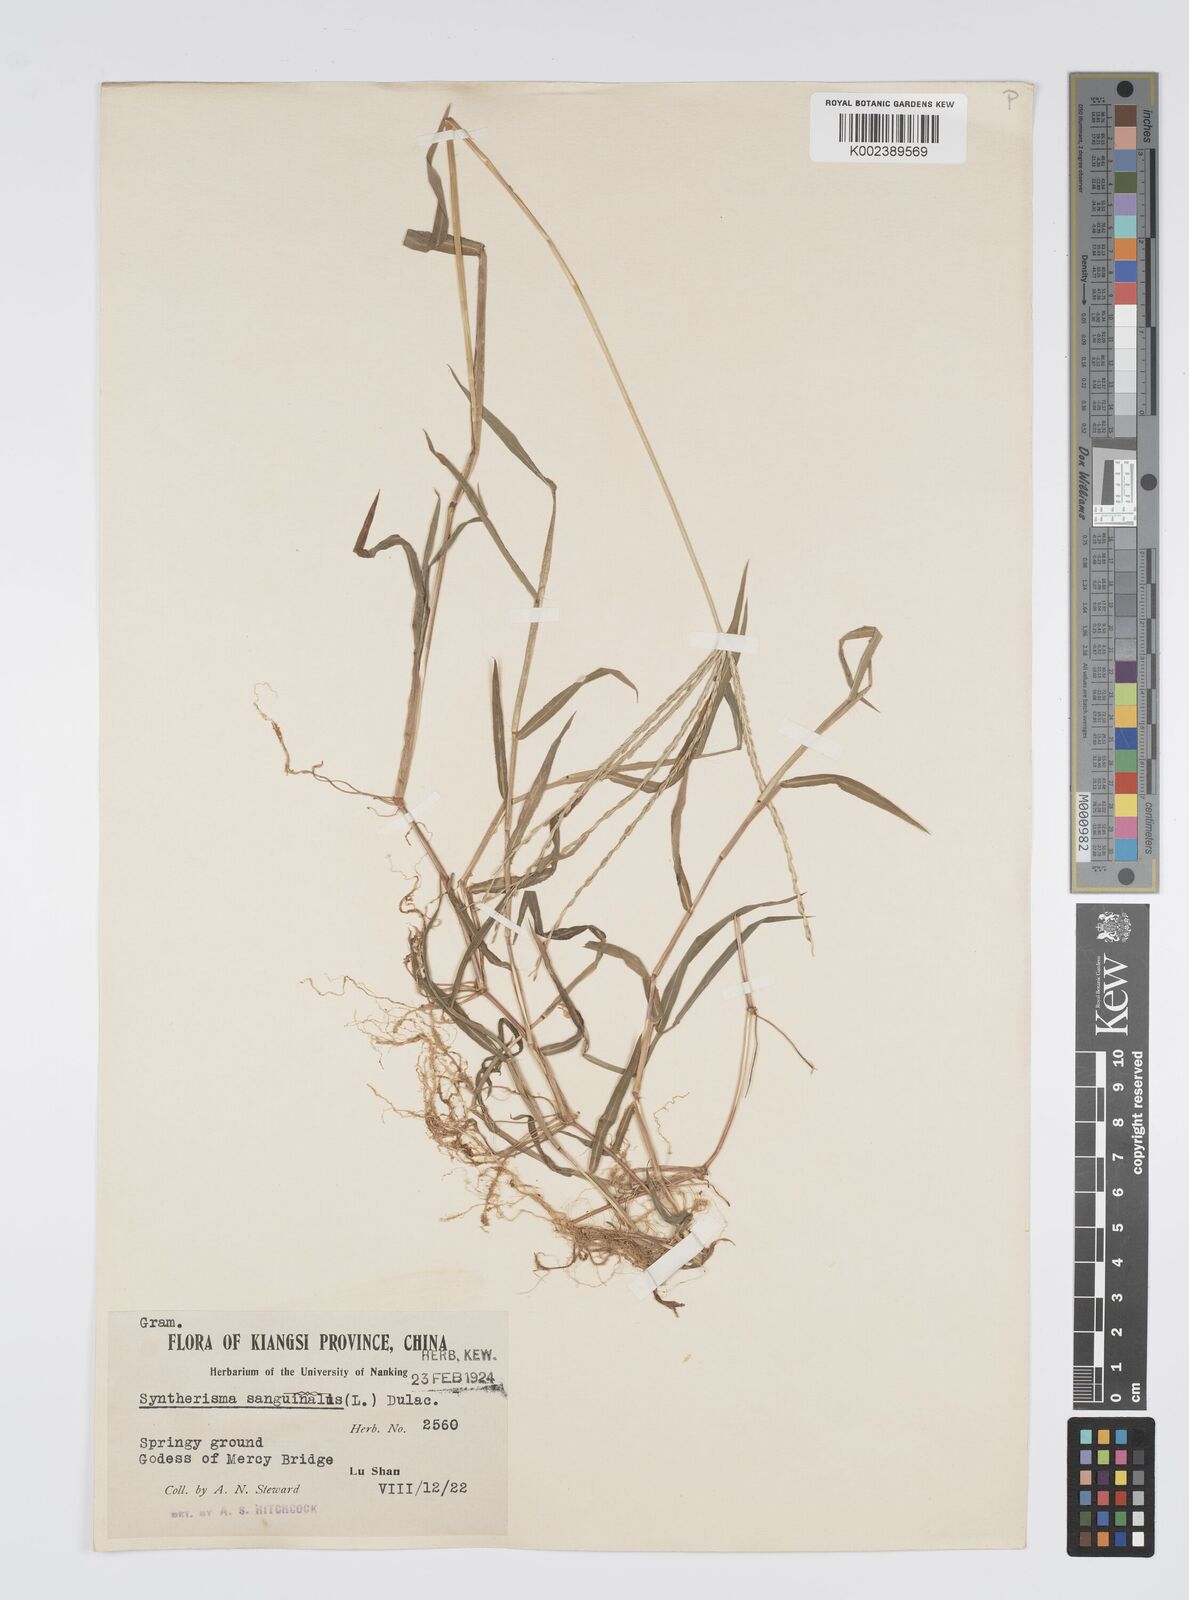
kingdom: Plantae
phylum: Tracheophyta
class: Liliopsida
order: Poales
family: Poaceae
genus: Digitaria
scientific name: Digitaria ciliaris
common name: Tropical finger-grass
